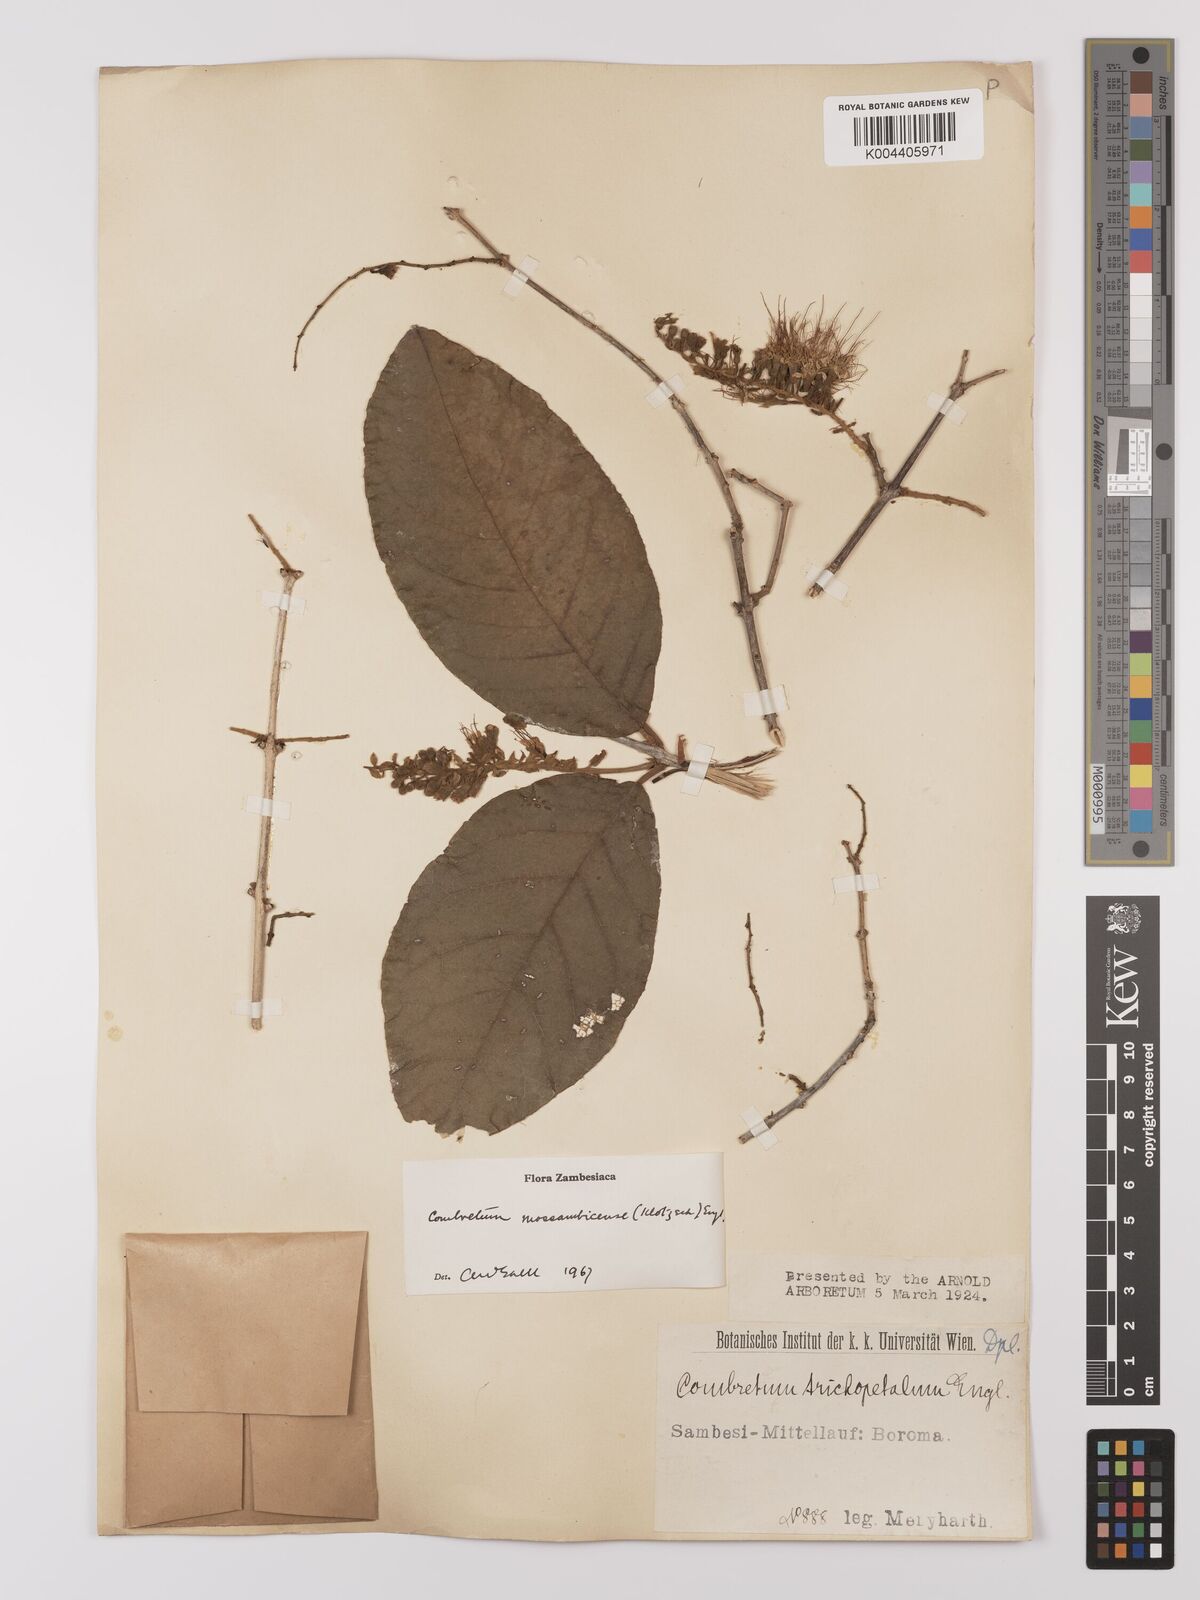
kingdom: Plantae
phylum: Tracheophyta
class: Magnoliopsida
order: Myrtales
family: Combretaceae
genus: Combretum
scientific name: Combretum mossambicense
